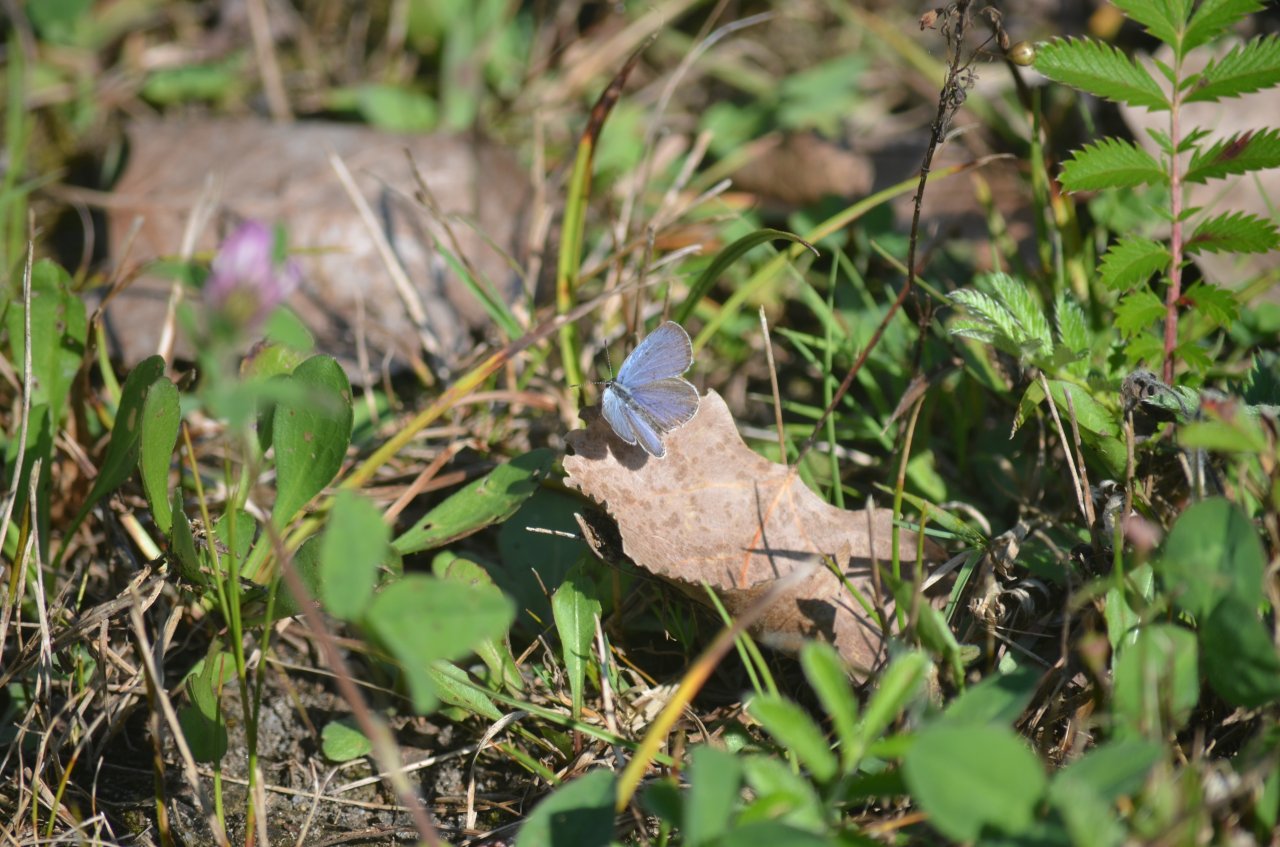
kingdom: Animalia
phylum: Arthropoda
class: Insecta
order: Lepidoptera
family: Lycaenidae
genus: Elkalyce
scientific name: Elkalyce comyntas
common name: Eastern Tailed-Blue
